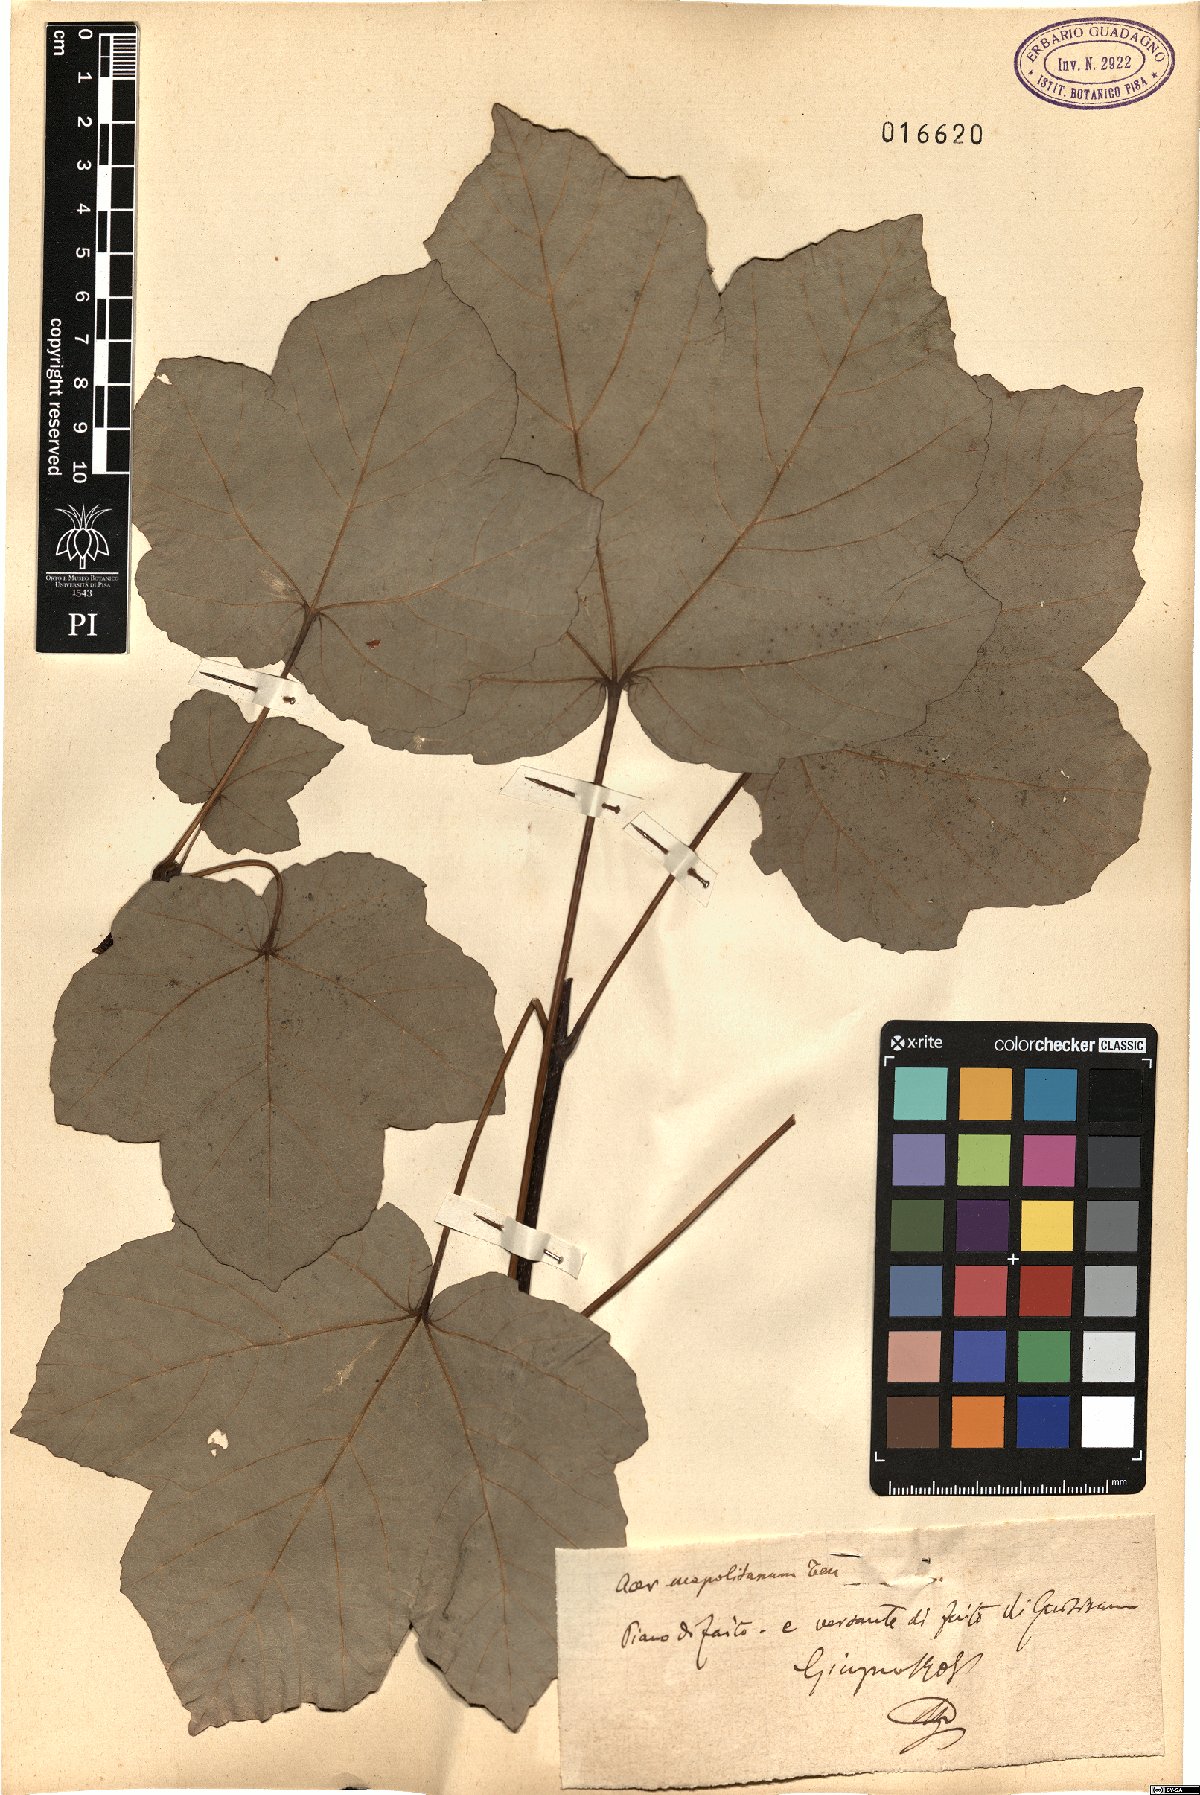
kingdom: Plantae
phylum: Tracheophyta
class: Magnoliopsida
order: Sapindales
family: Sapindaceae
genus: Acer
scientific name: Acer obtusatum
